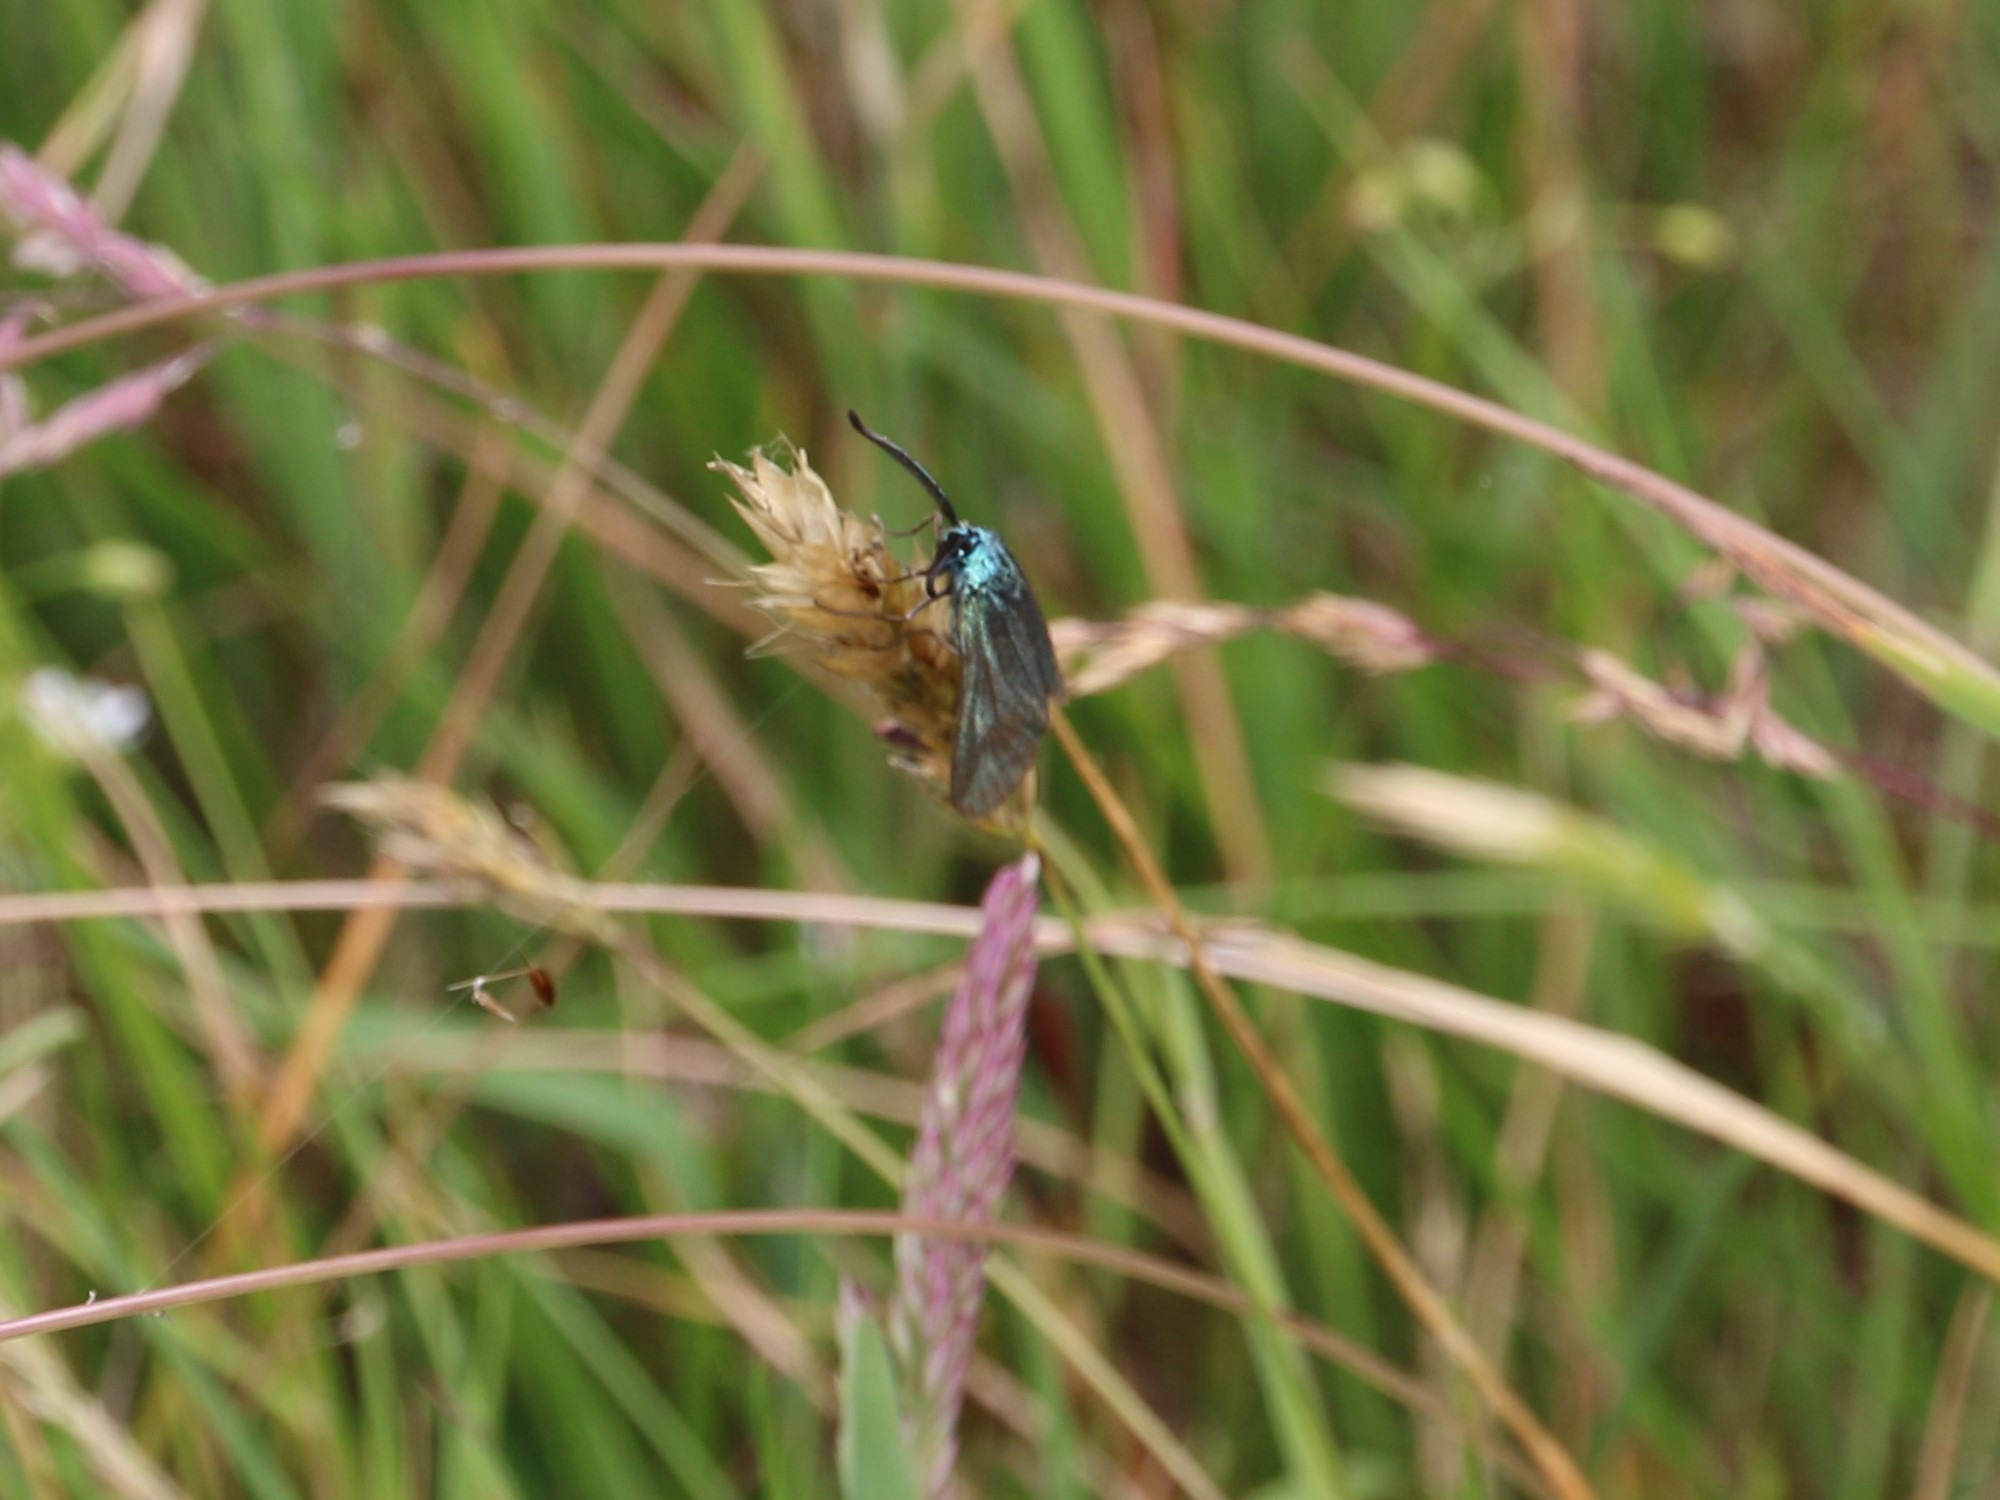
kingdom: Animalia
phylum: Arthropoda
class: Insecta
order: Lepidoptera
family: Zygaenidae
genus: Adscita
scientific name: Adscita statices
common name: Metalvinge
